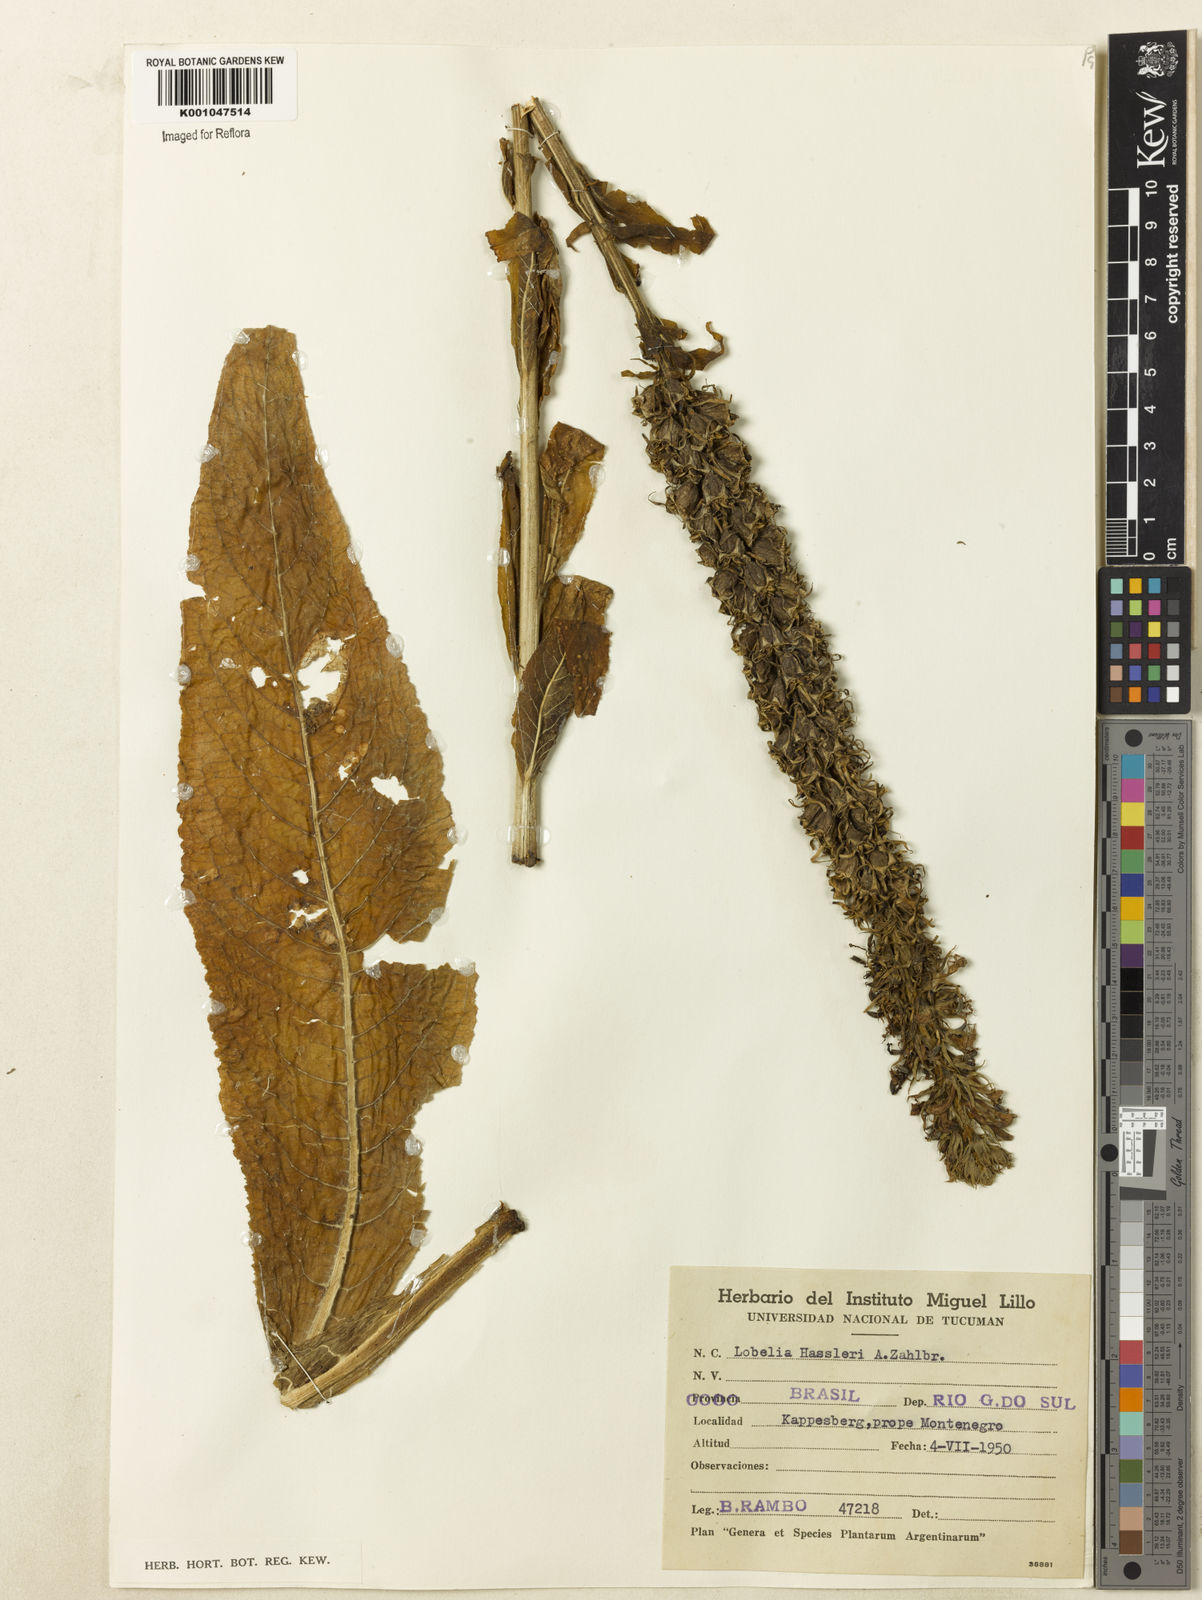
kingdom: Plantae
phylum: Tracheophyta
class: Magnoliopsida
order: Asterales
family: Campanulaceae
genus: Lobelia
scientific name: Lobelia hassleri
